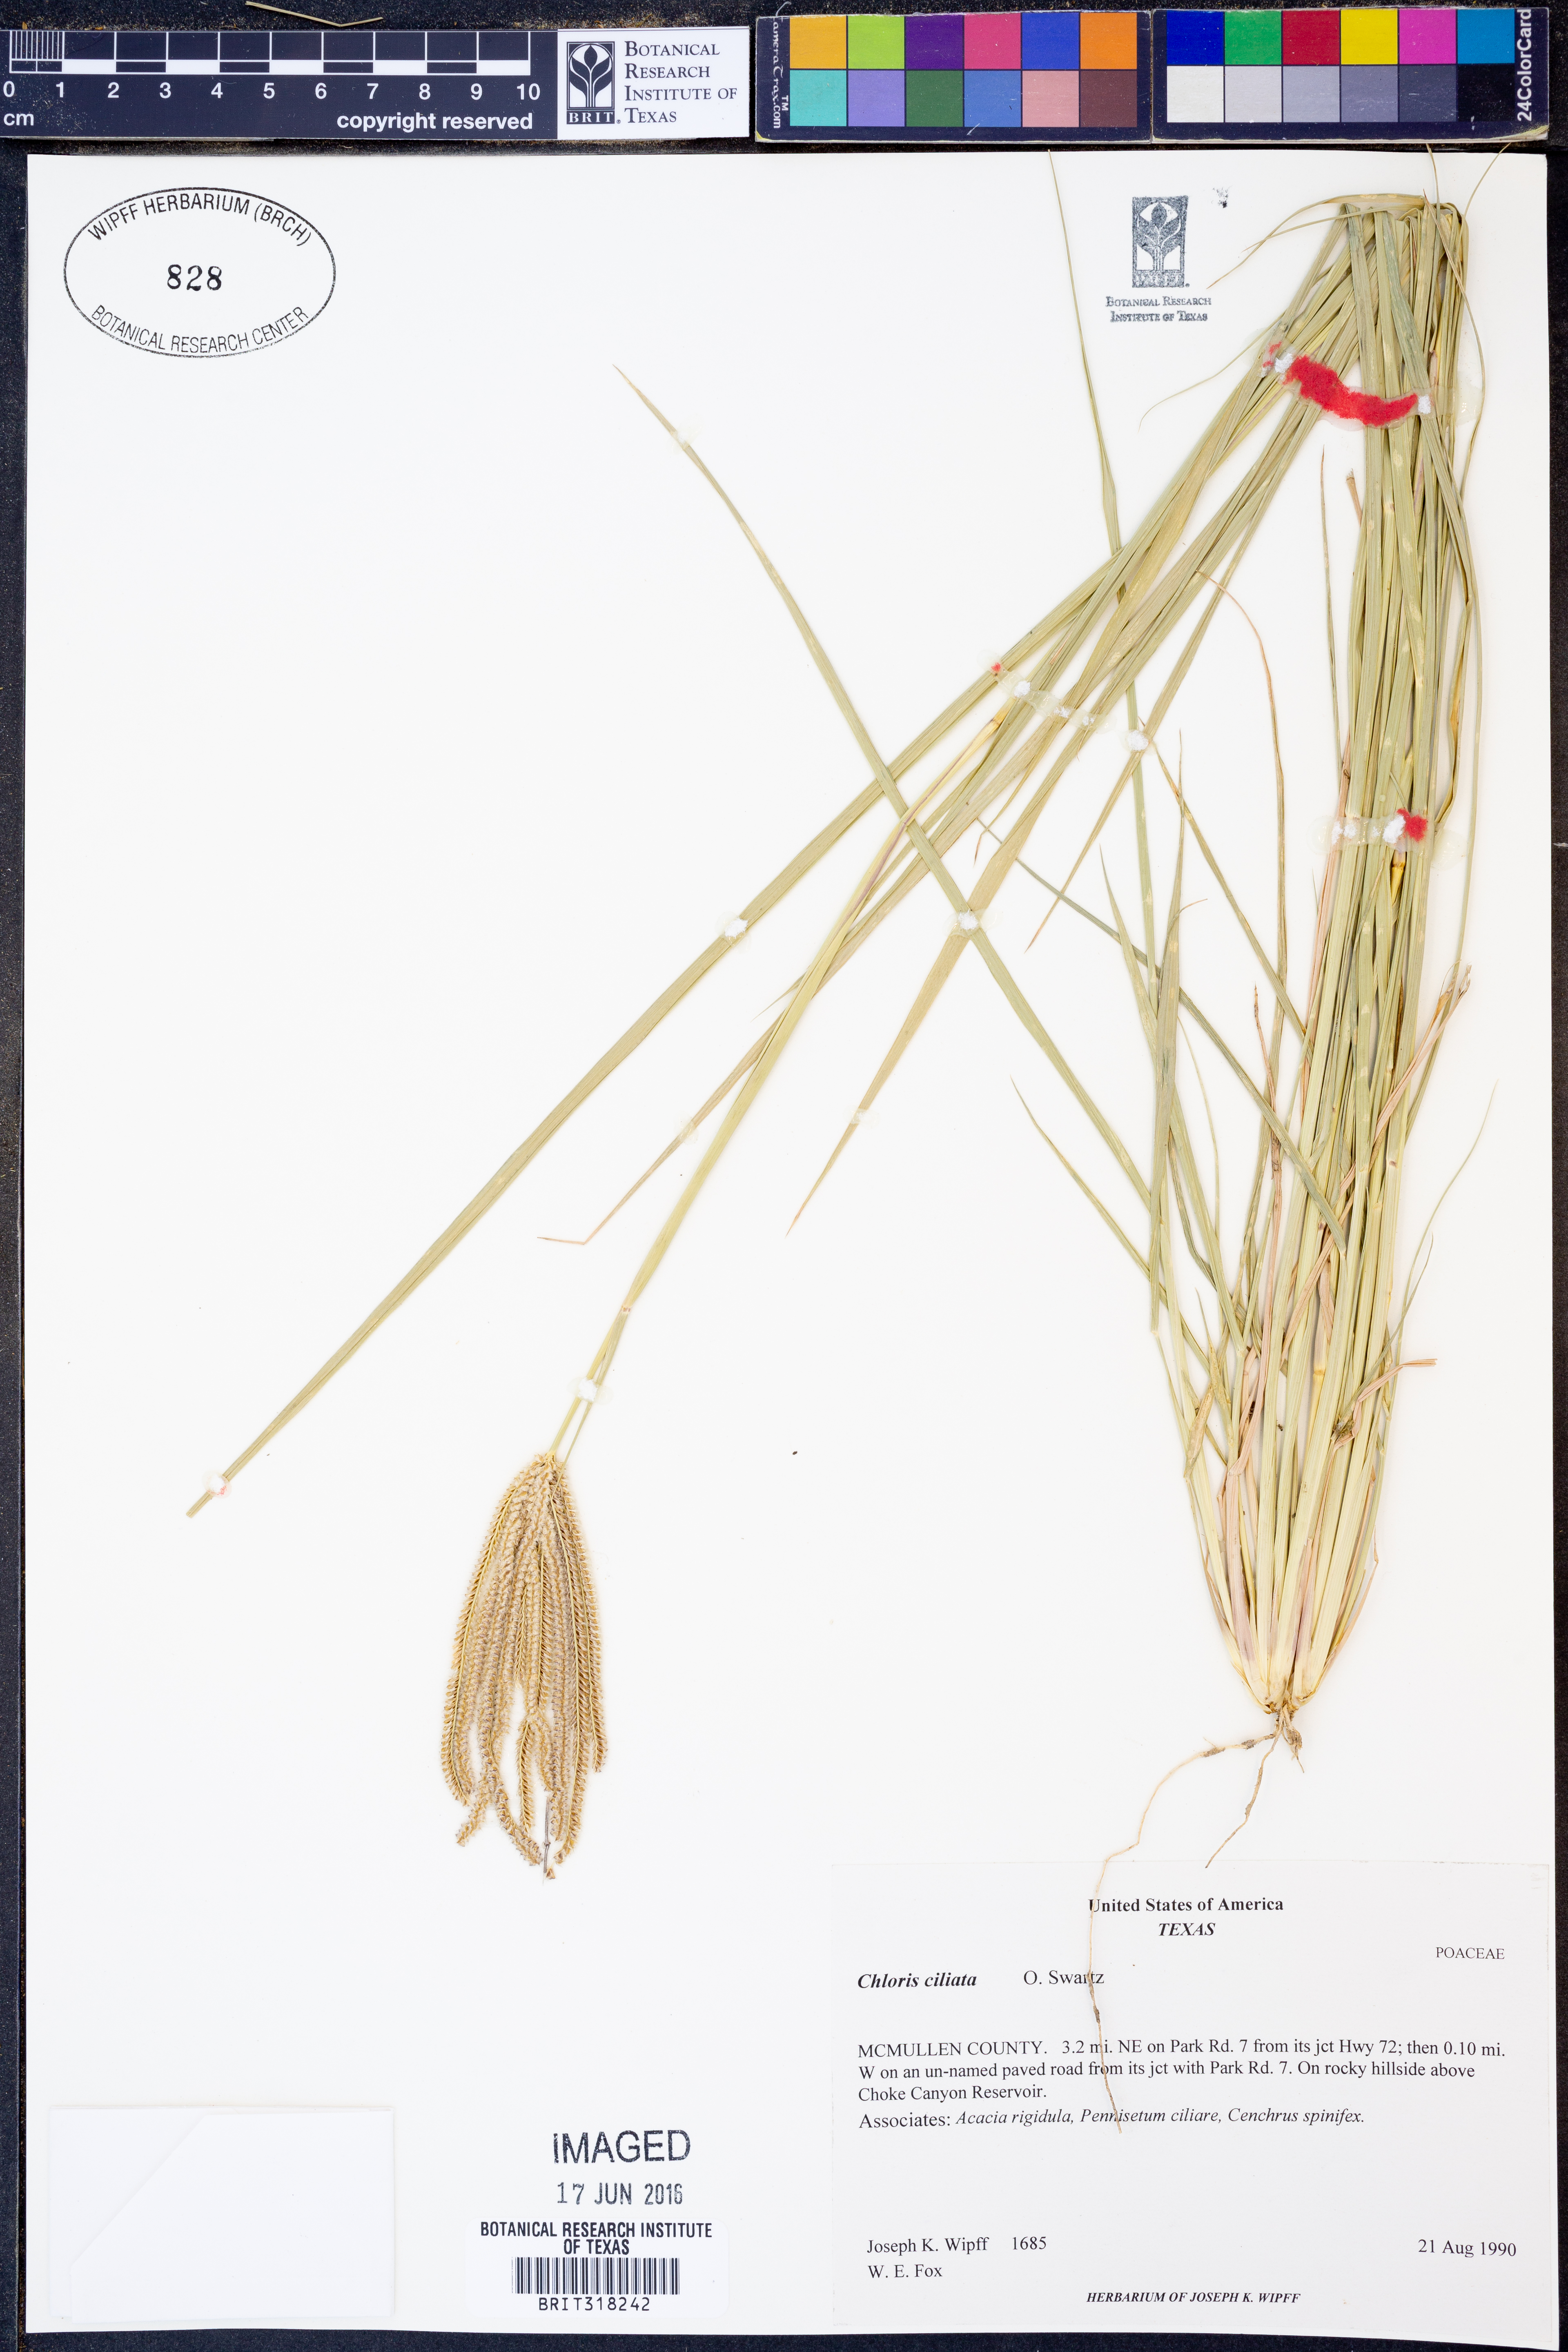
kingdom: Plantae
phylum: Tracheophyta
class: Liliopsida
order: Poales
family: Poaceae
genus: Stapfochloa
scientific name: Stapfochloa ciliata
